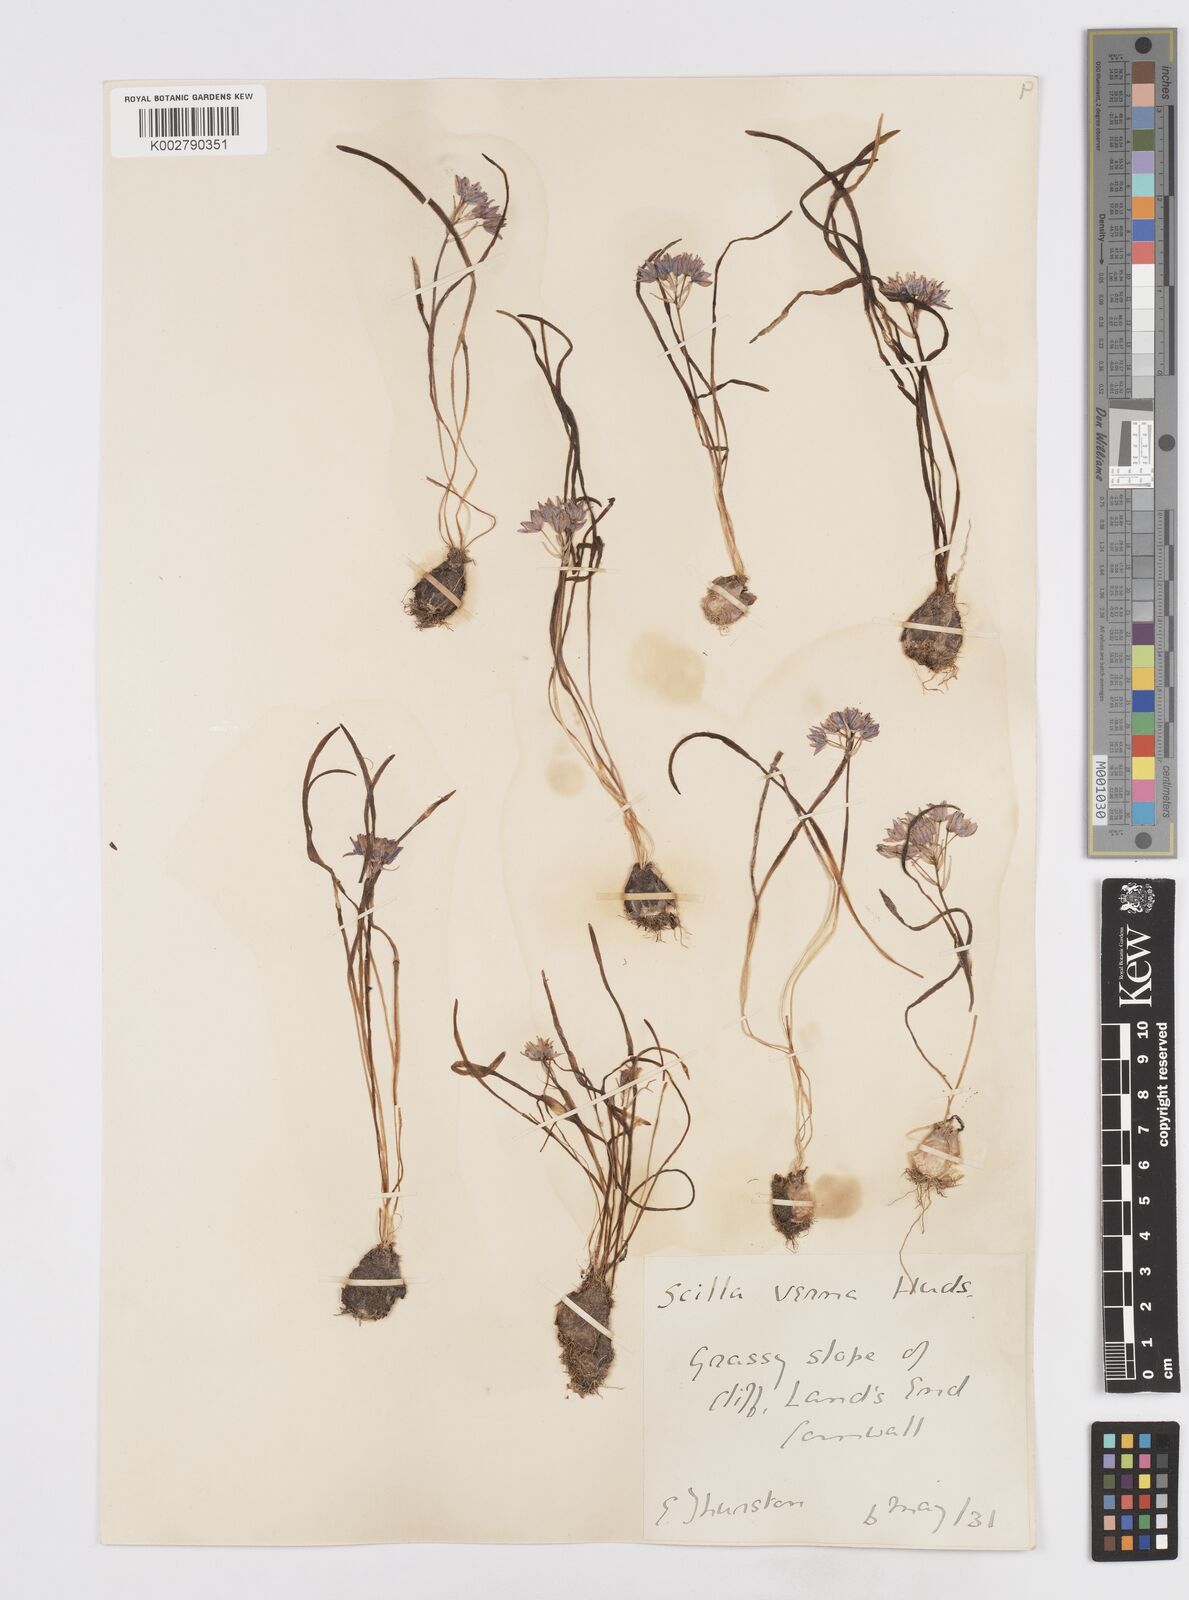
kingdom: Plantae
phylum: Tracheophyta
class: Liliopsida
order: Asparagales
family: Asparagaceae
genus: Scilla
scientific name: Scilla verna
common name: Spring squill
